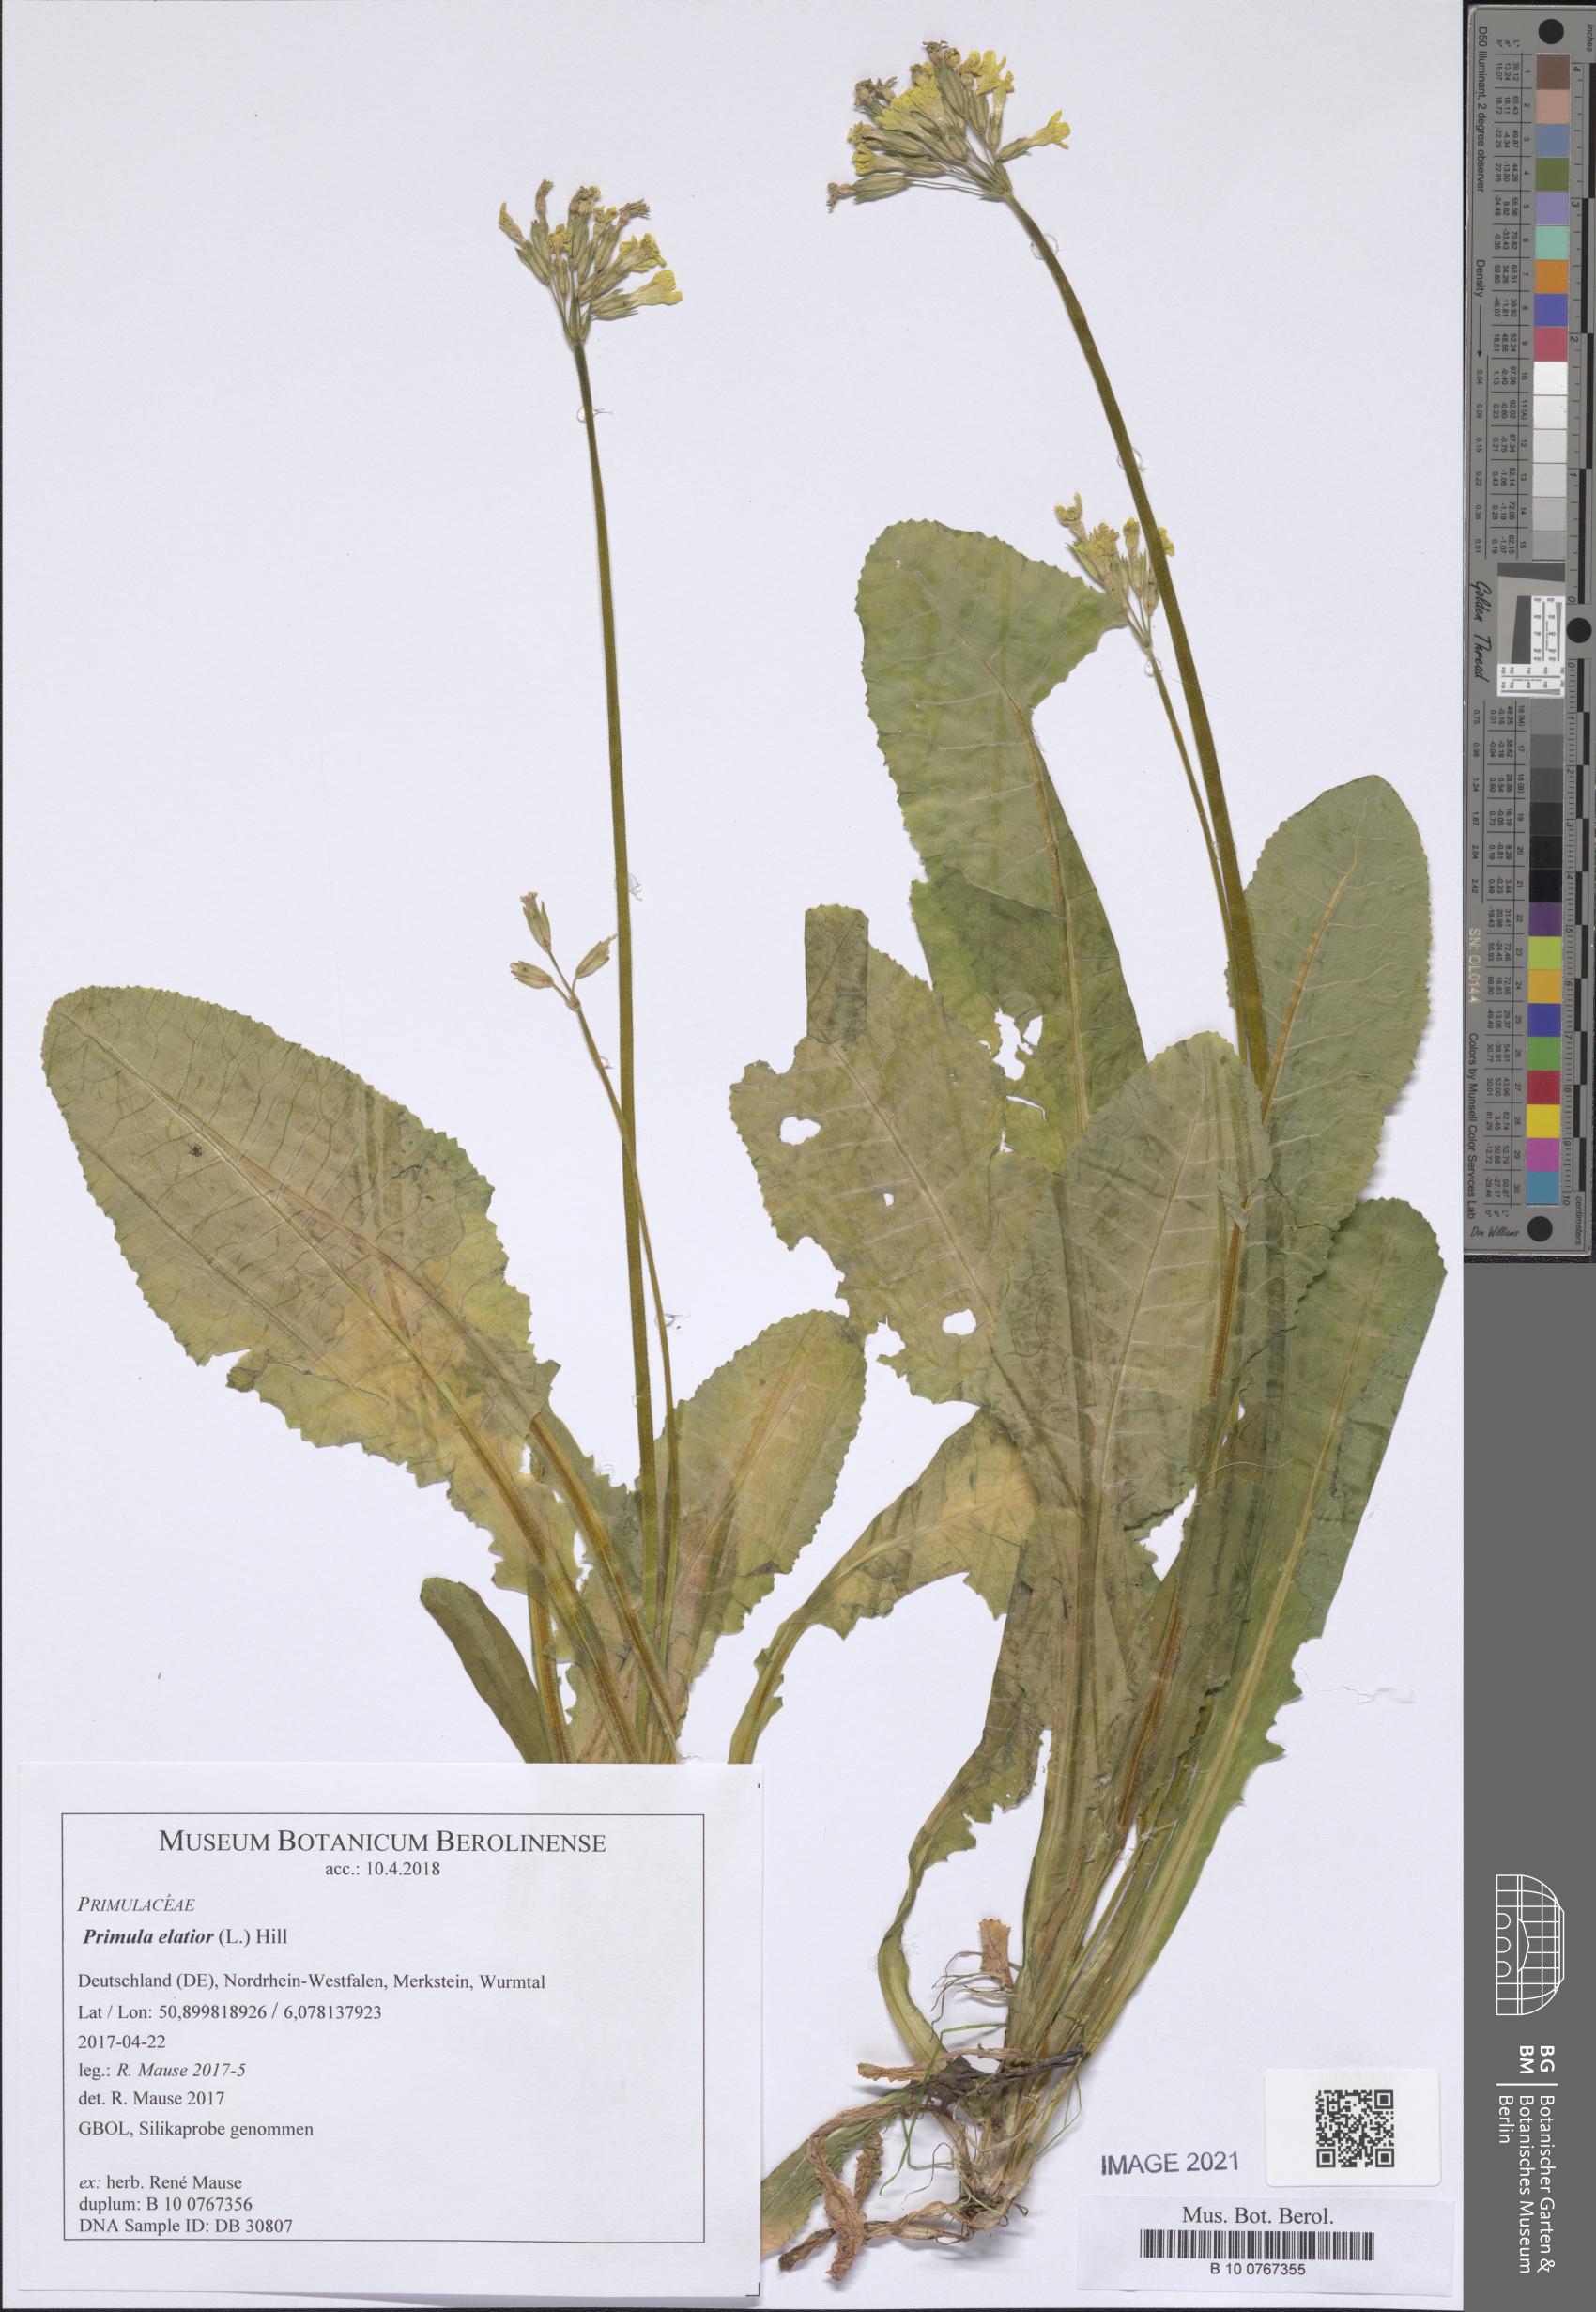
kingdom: Plantae
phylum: Tracheophyta
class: Magnoliopsida
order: Ericales
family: Primulaceae
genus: Primula
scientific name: Primula elatior
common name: Oxlip
